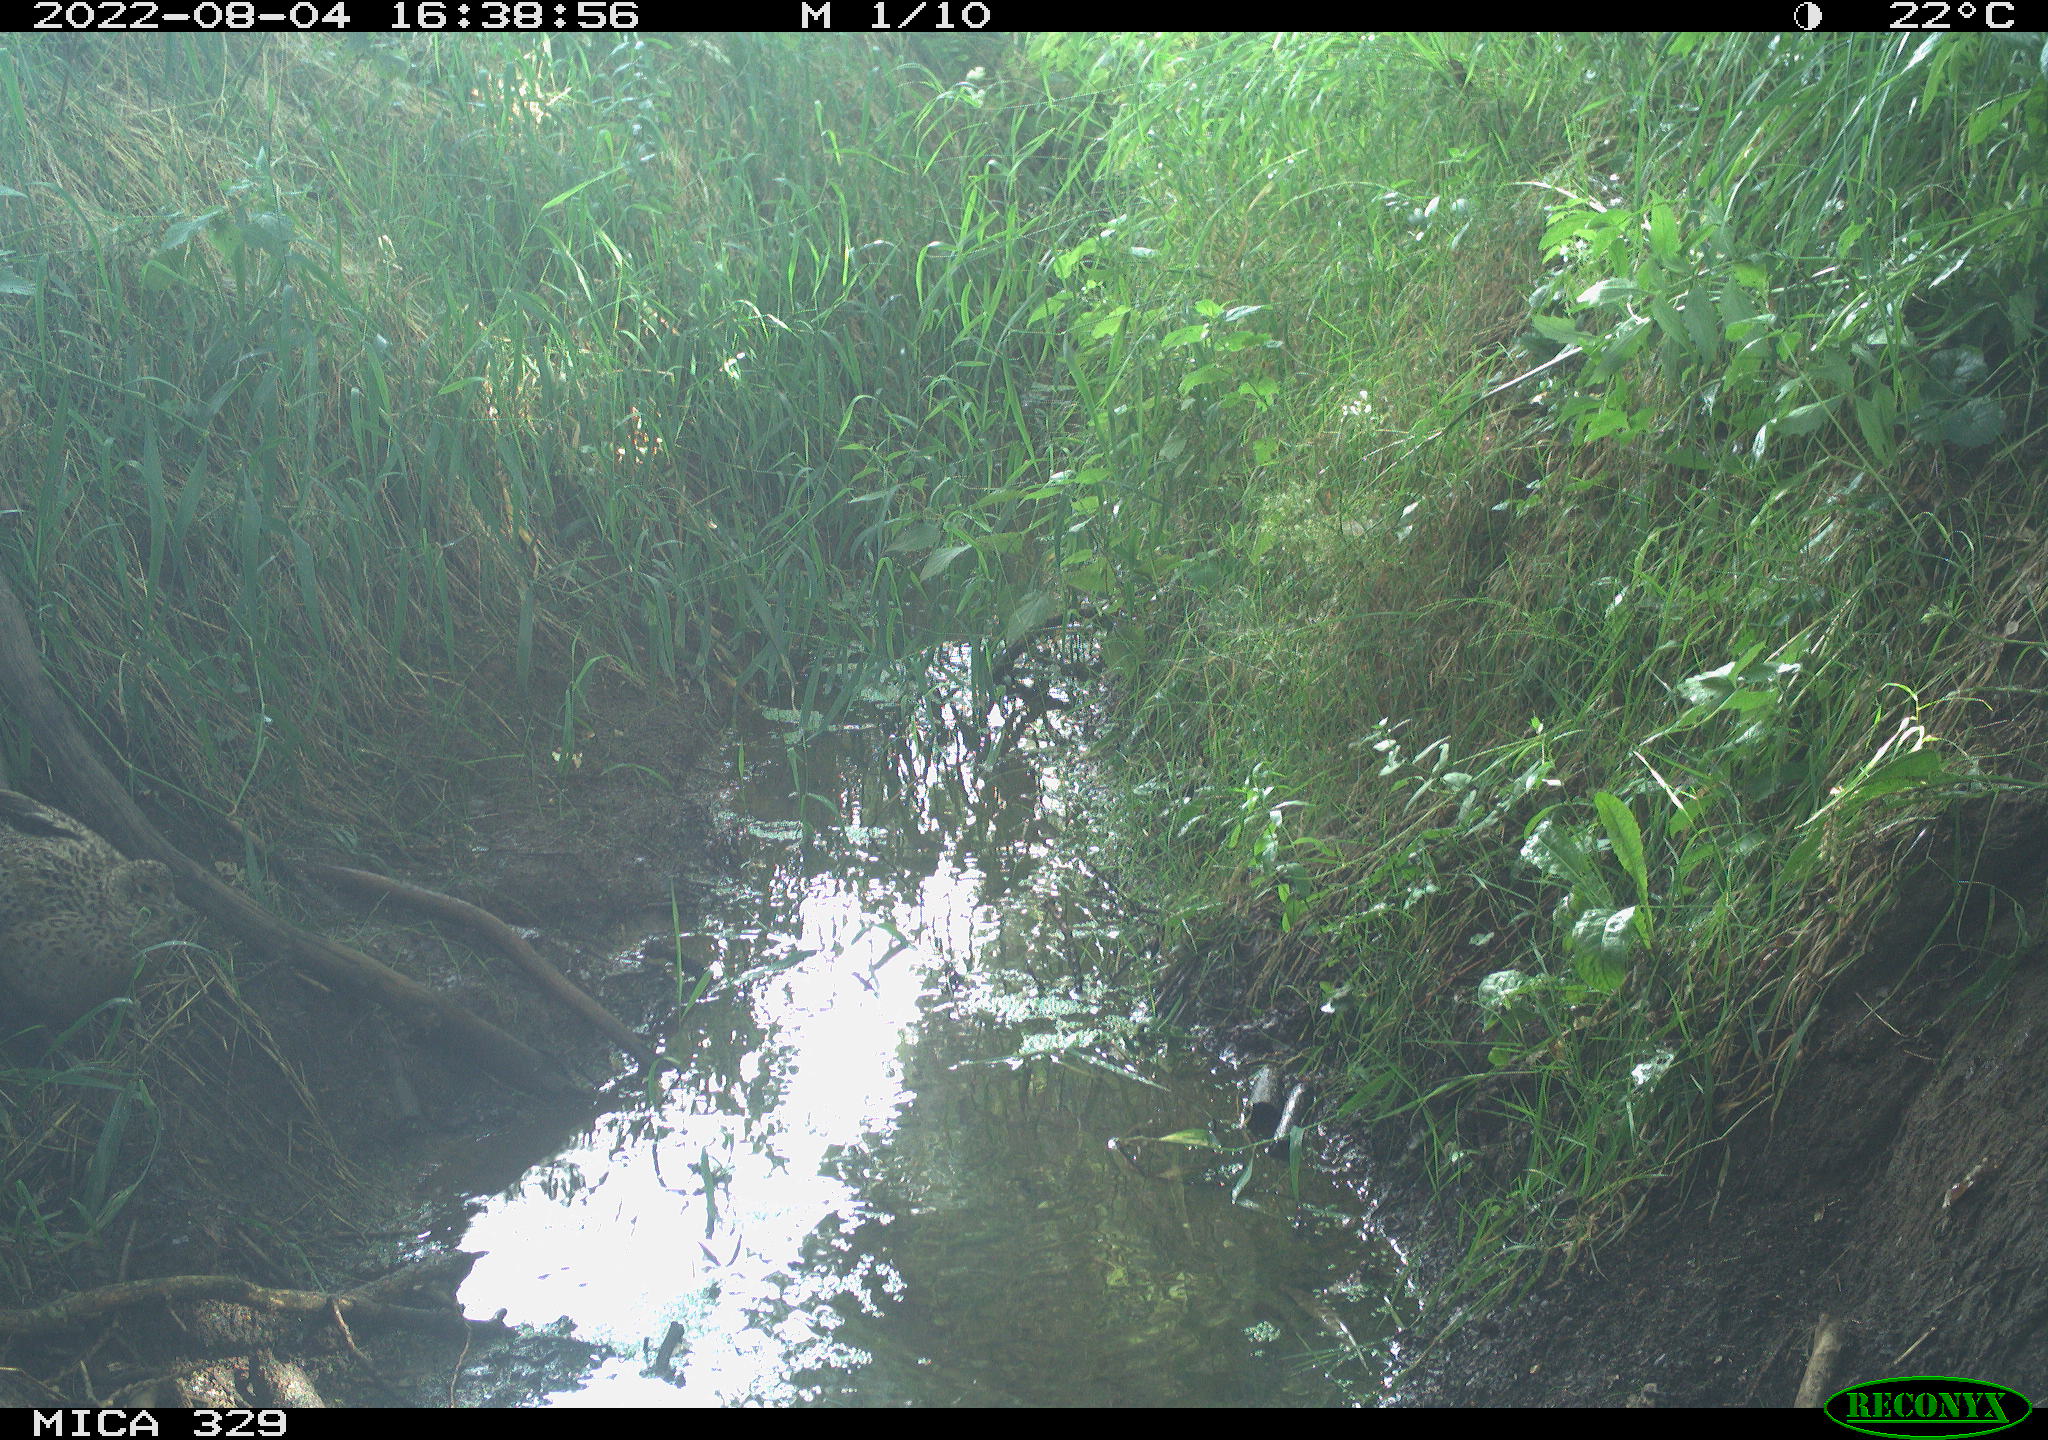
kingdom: Animalia
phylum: Chordata
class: Aves
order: Galliformes
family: Phasianidae
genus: Phasianus
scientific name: Phasianus colchicus
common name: Common pheasant
